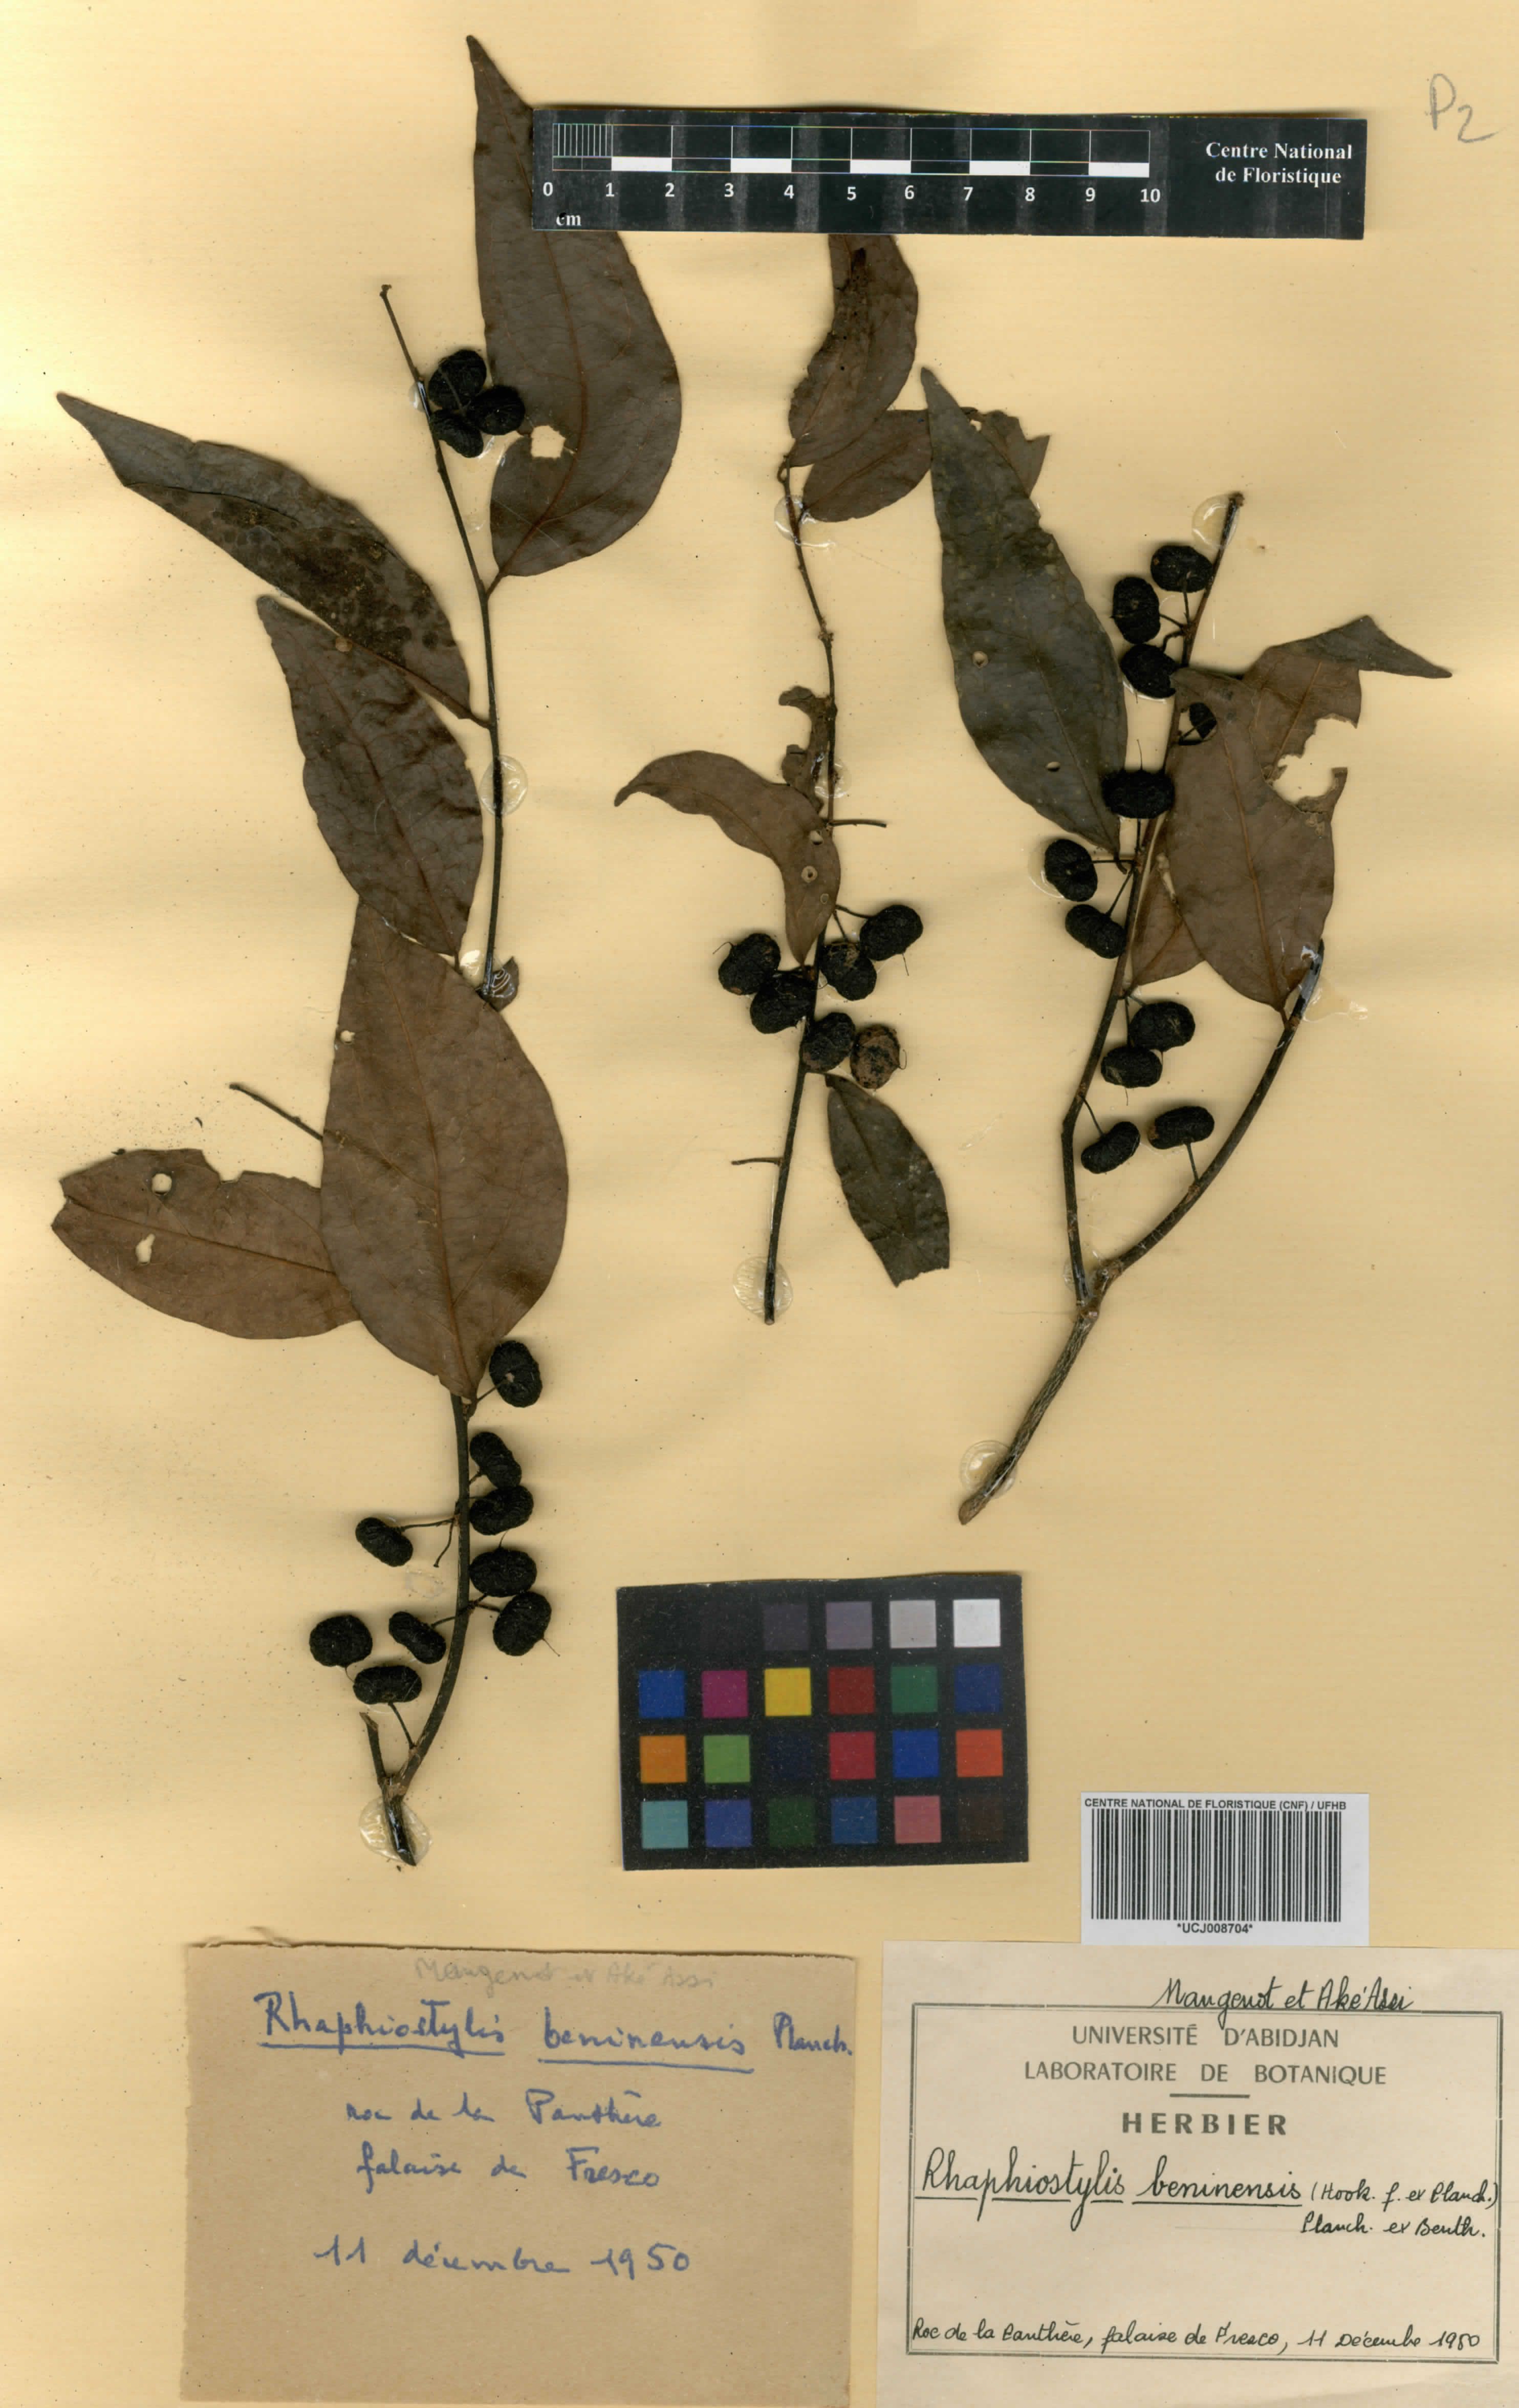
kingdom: Plantae
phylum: Tracheophyta
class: Magnoliopsida
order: Metteniusales
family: Metteniusaceae
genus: Rhaphiostylis
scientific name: Rhaphiostylis beninensis
